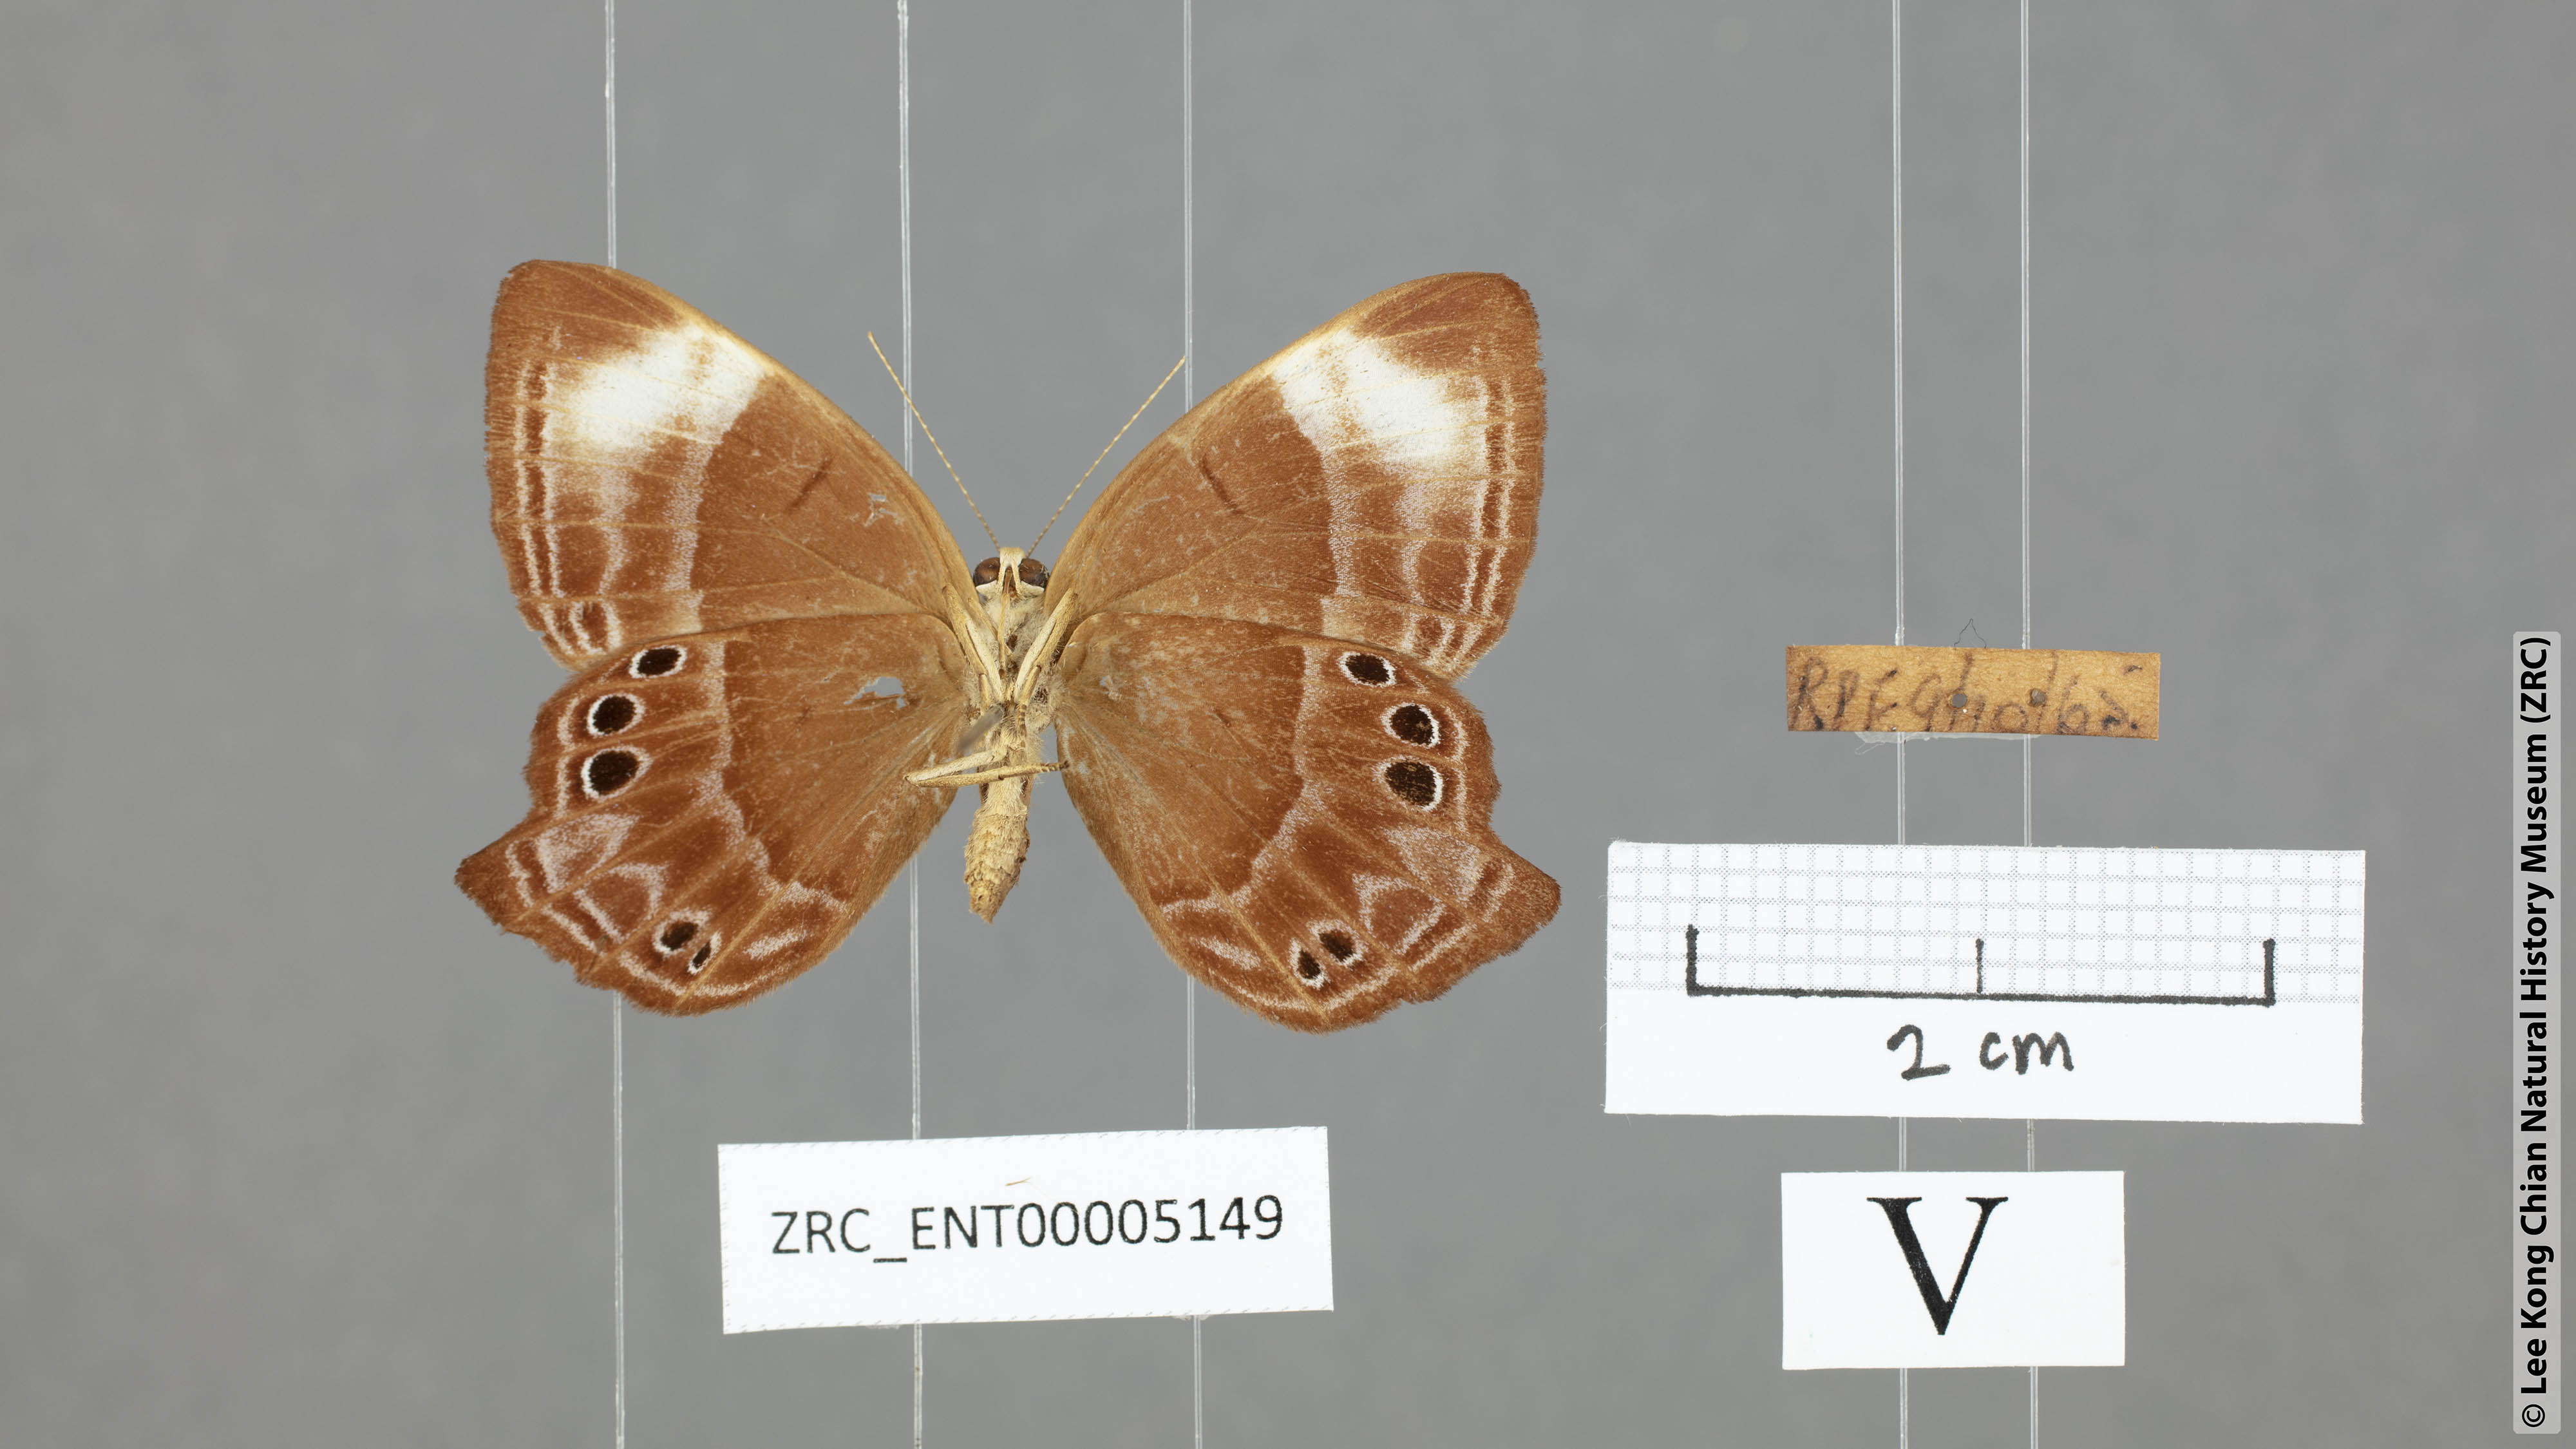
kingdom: Animalia
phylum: Arthropoda
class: Insecta
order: Lepidoptera
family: Lycaenidae
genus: Abisara
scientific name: Abisara geza
